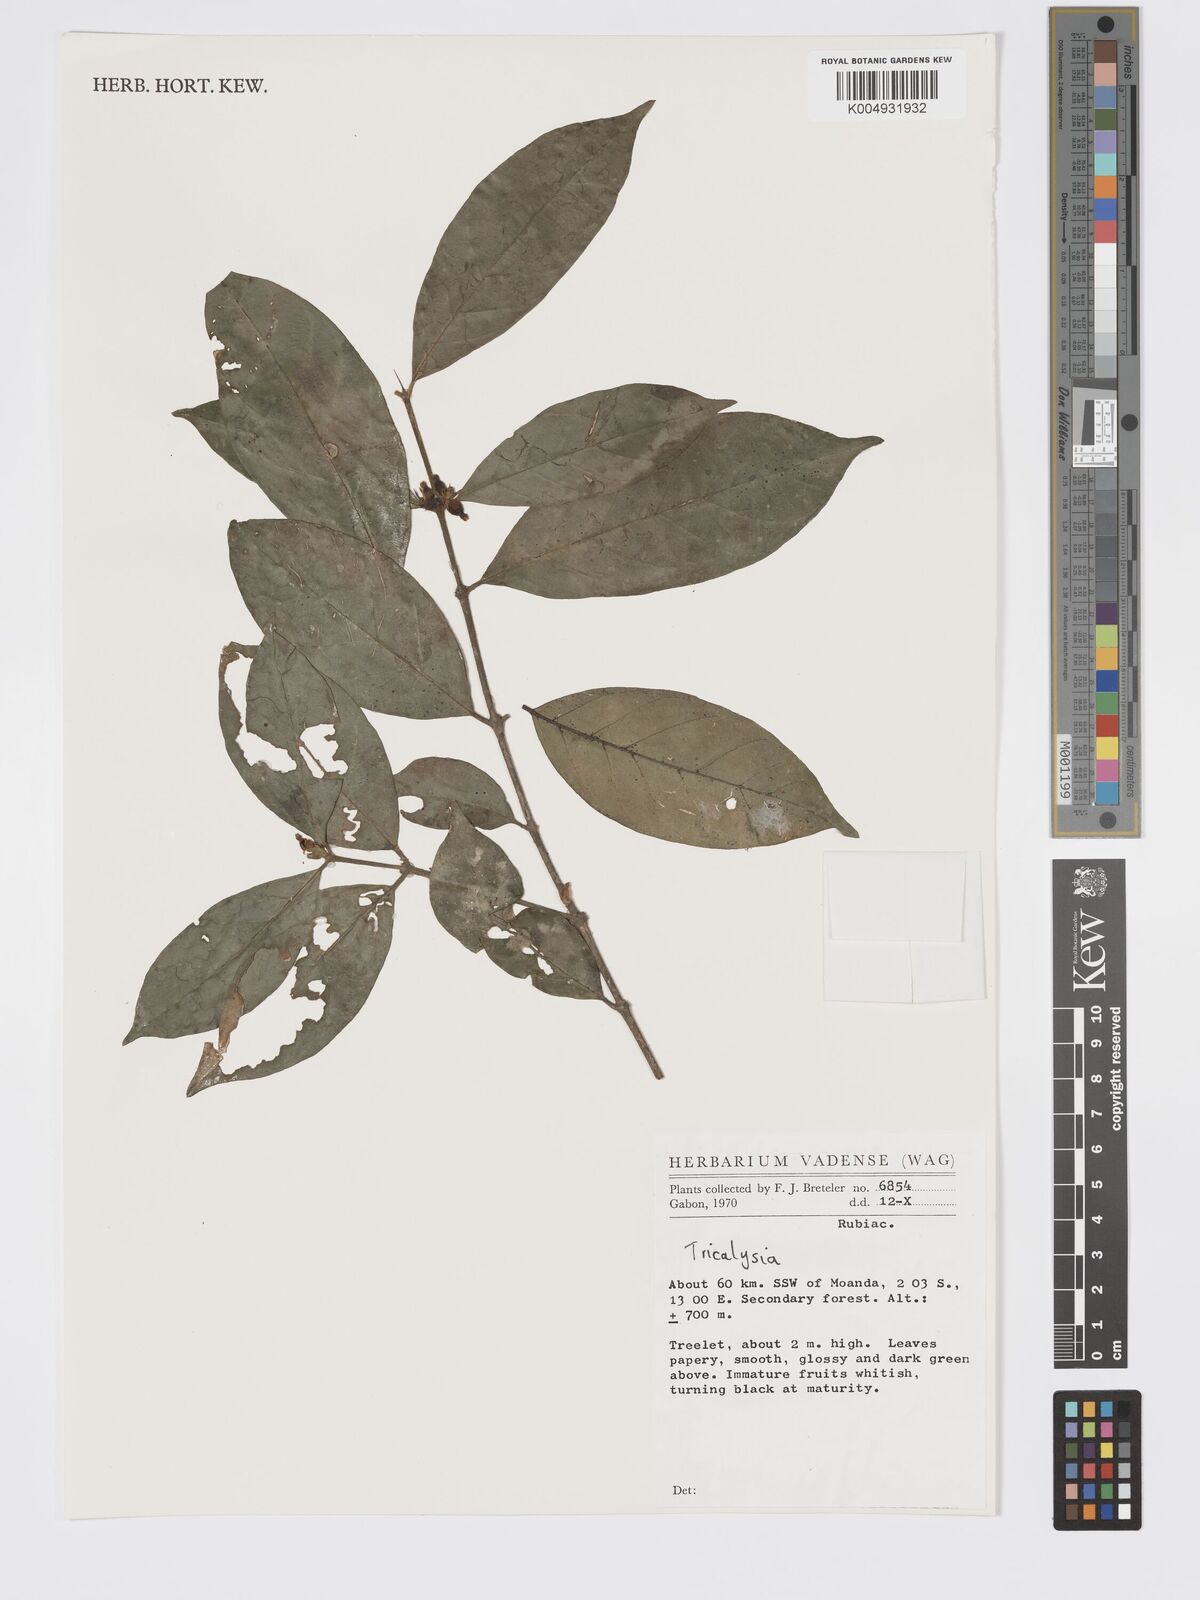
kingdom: Plantae
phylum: Tracheophyta
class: Magnoliopsida
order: Gentianales
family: Rubiaceae
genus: Tricalysia
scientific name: Tricalysia
